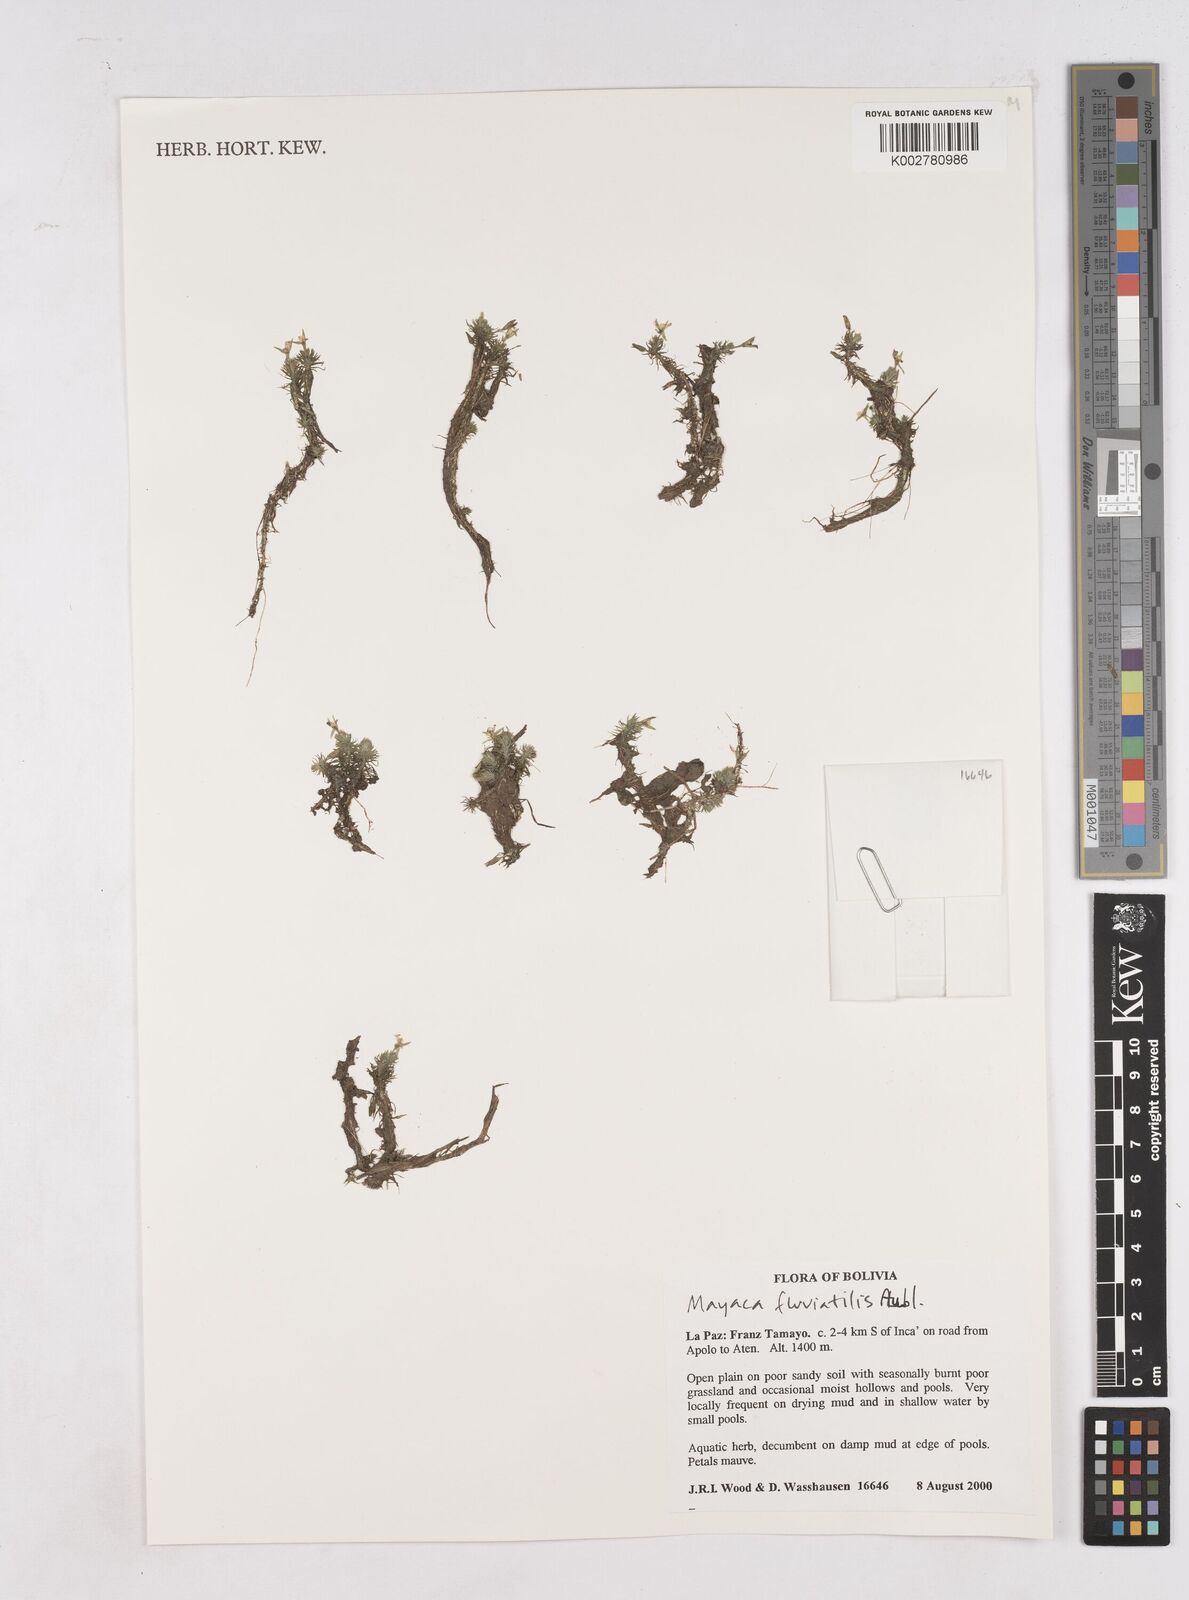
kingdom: Plantae
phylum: Tracheophyta
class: Liliopsida
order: Poales
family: Mayacaceae
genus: Mayaca
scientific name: Mayaca fluviatilis
